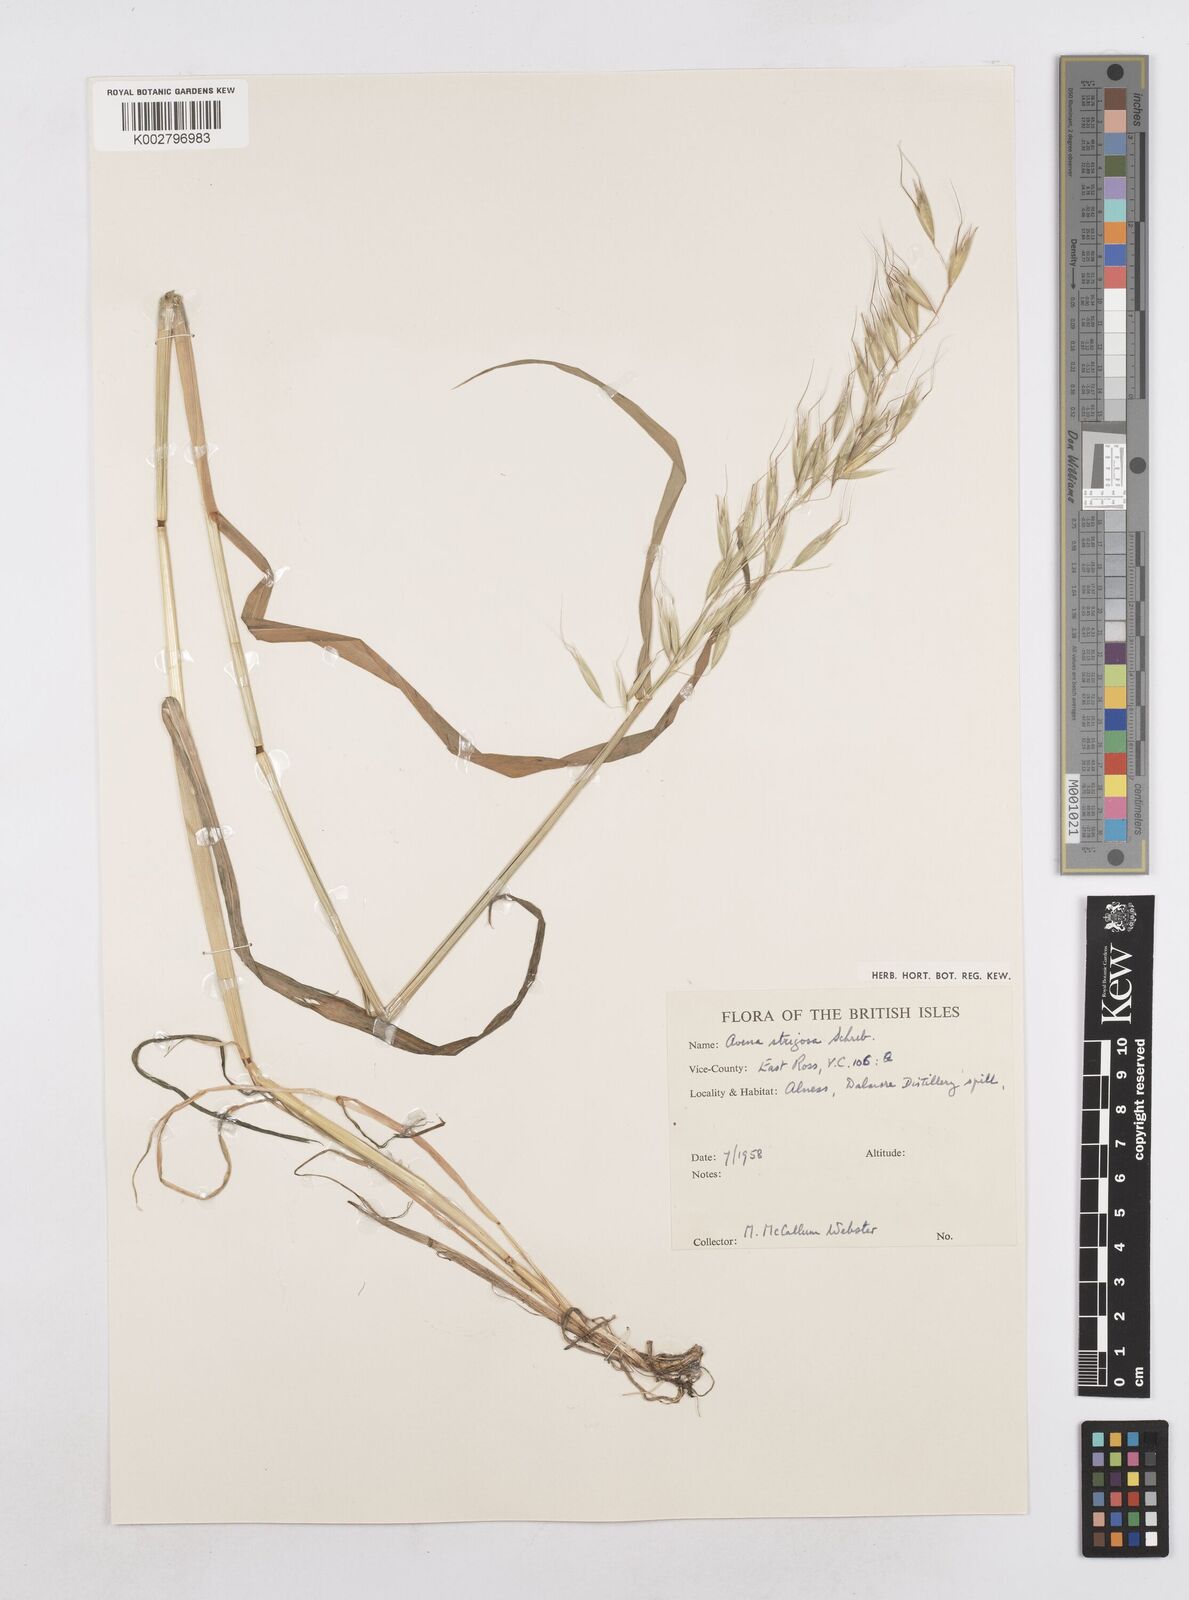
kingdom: Plantae
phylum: Tracheophyta
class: Liliopsida
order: Poales
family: Poaceae
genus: Avena
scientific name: Avena strigosa
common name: Bristle oat
